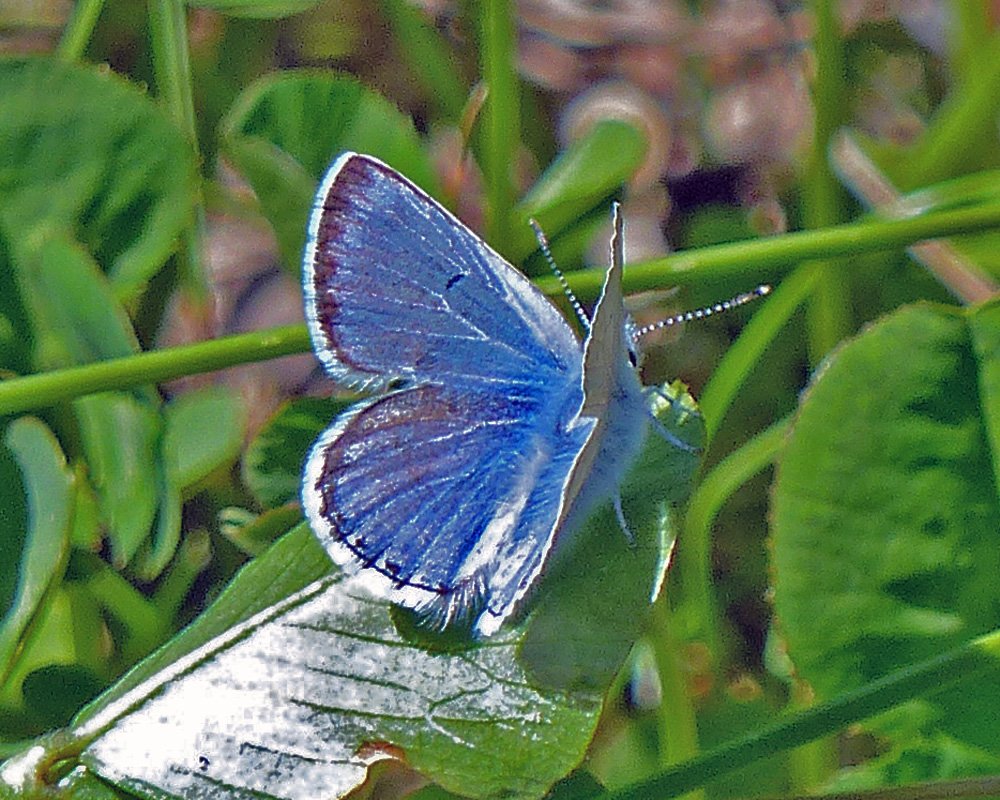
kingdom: Animalia
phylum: Arthropoda
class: Insecta
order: Lepidoptera
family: Lycaenidae
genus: Plebejus
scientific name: Plebejus saepiolus
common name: Greenish Blue
